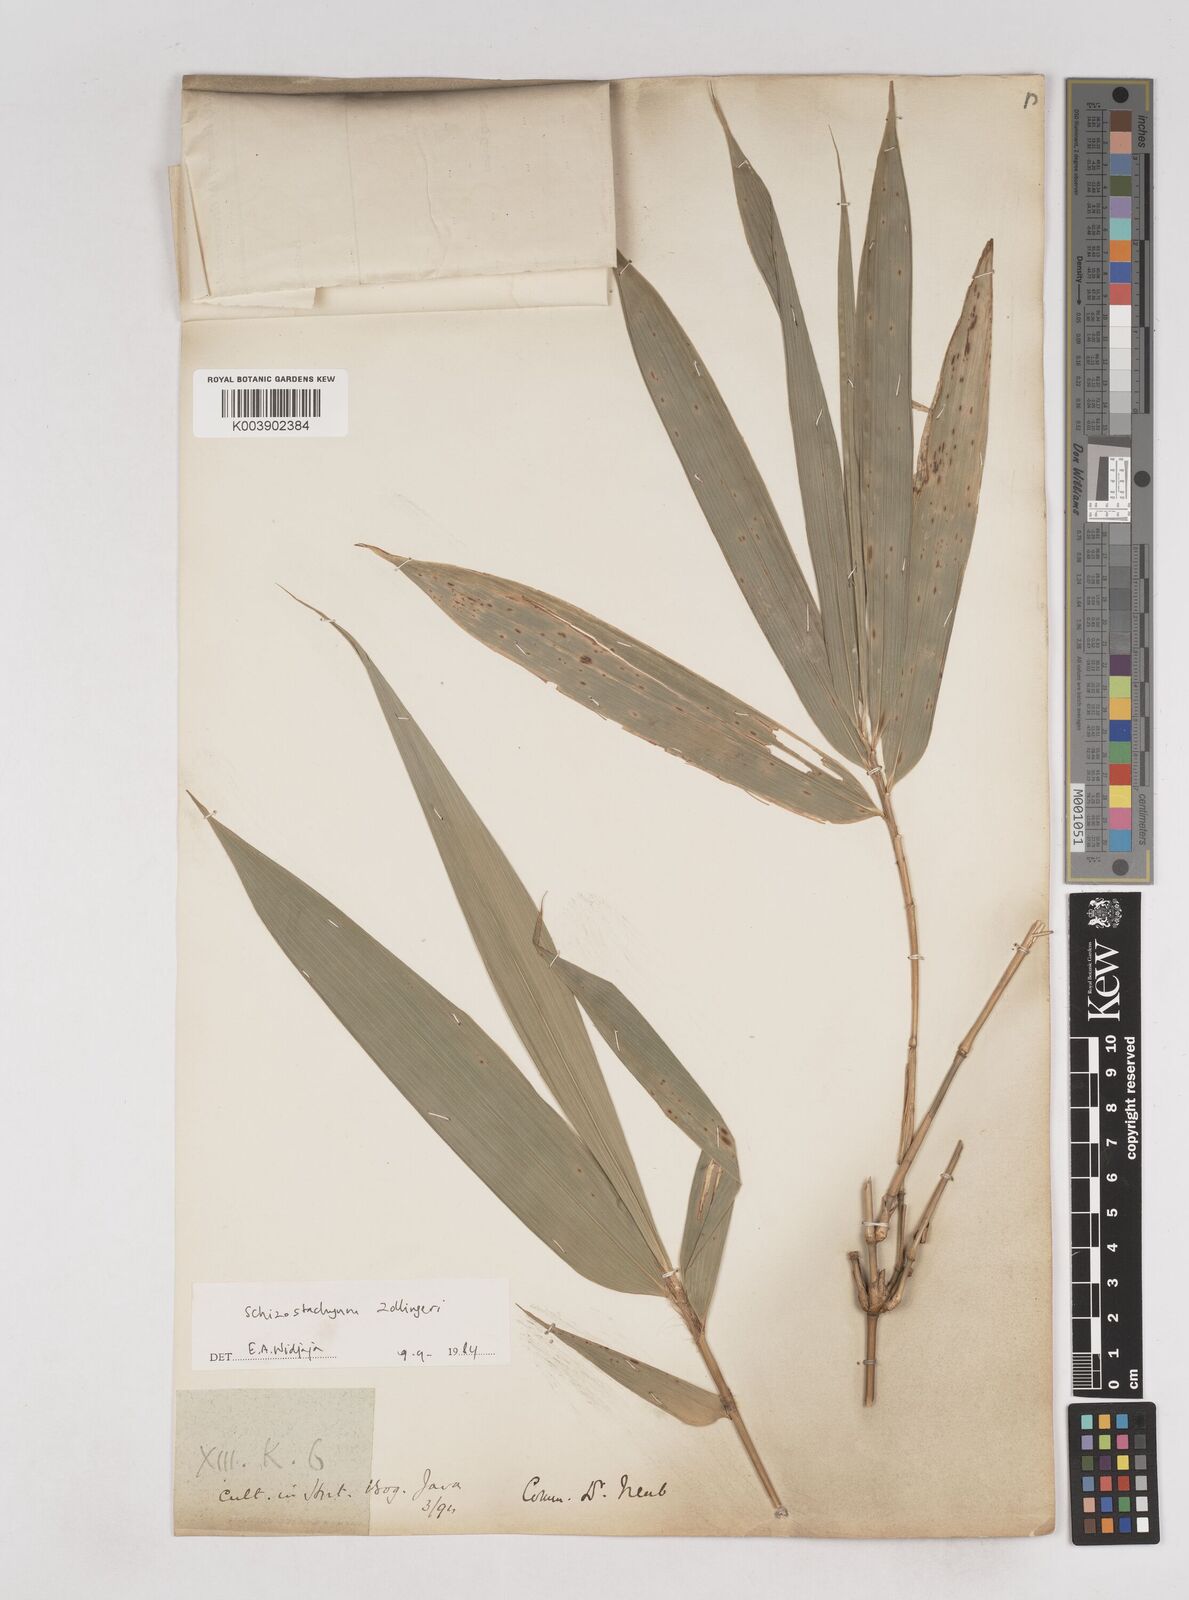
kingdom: Plantae
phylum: Tracheophyta
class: Liliopsida
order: Poales
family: Poaceae
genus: Schizostachyum
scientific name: Schizostachyum zollingeri
